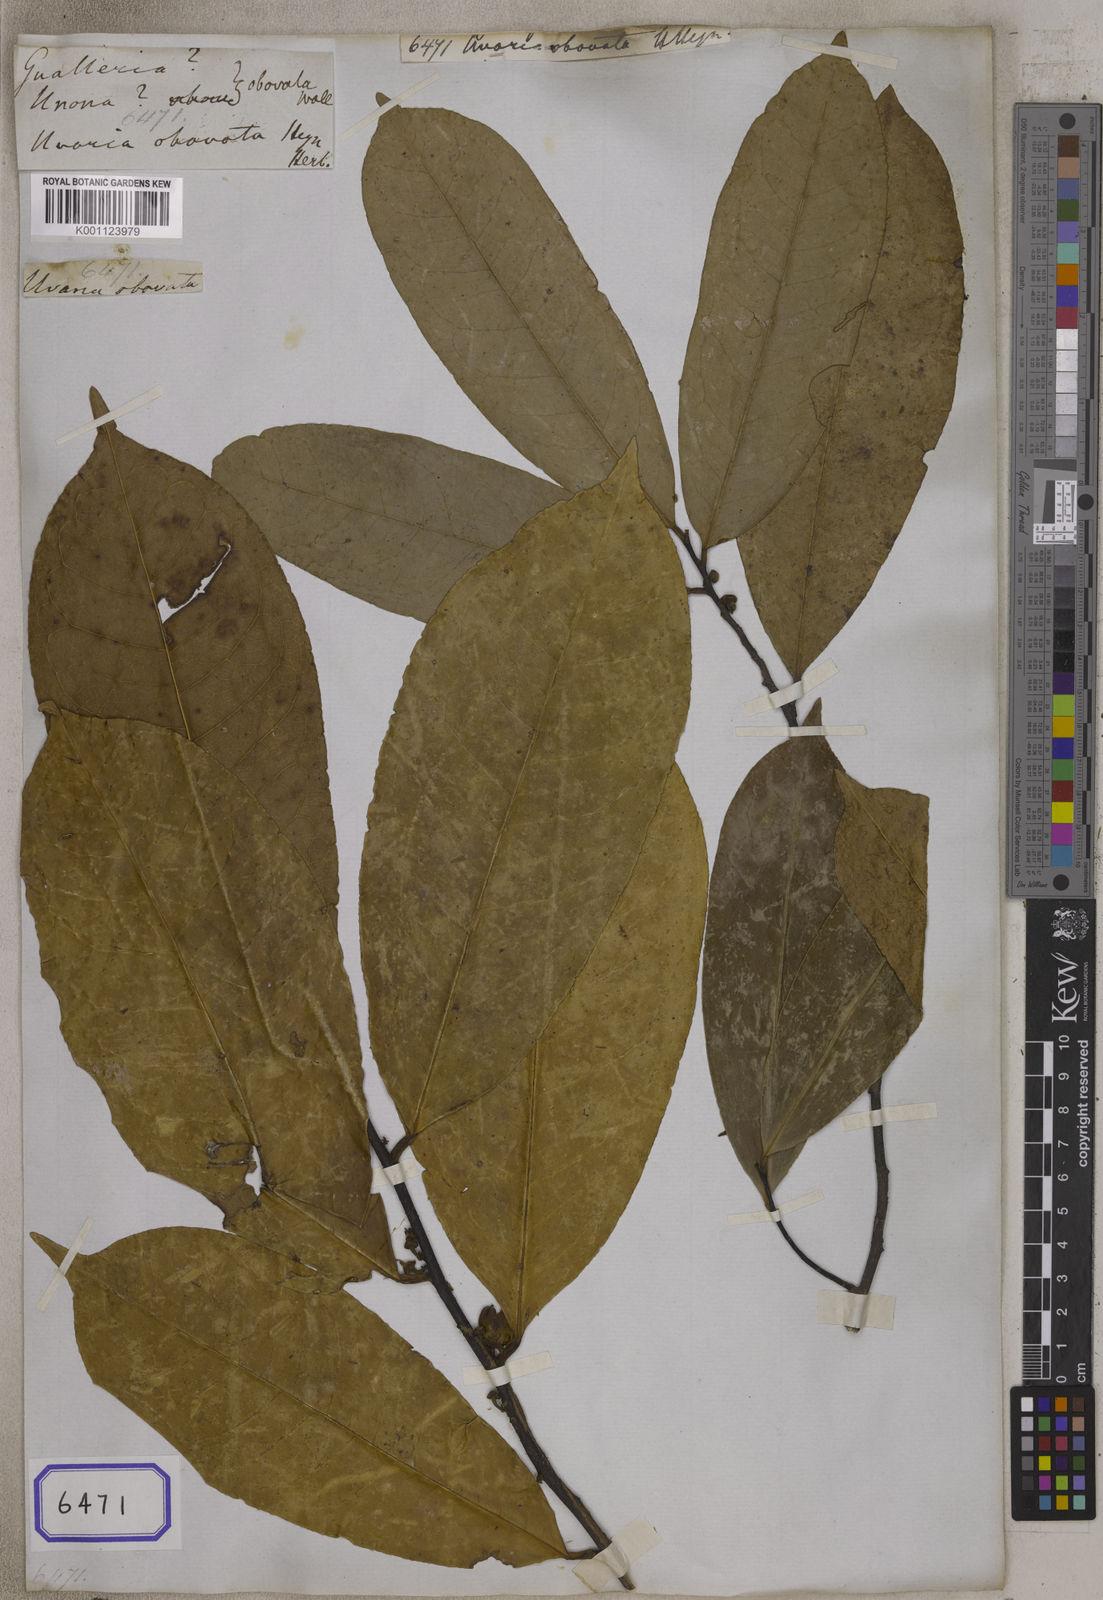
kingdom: Plantae
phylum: Tracheophyta
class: Magnoliopsida
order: Magnoliales
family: Annonaceae
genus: Goniothalamus
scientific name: Goniothalamus cardiopetalus
